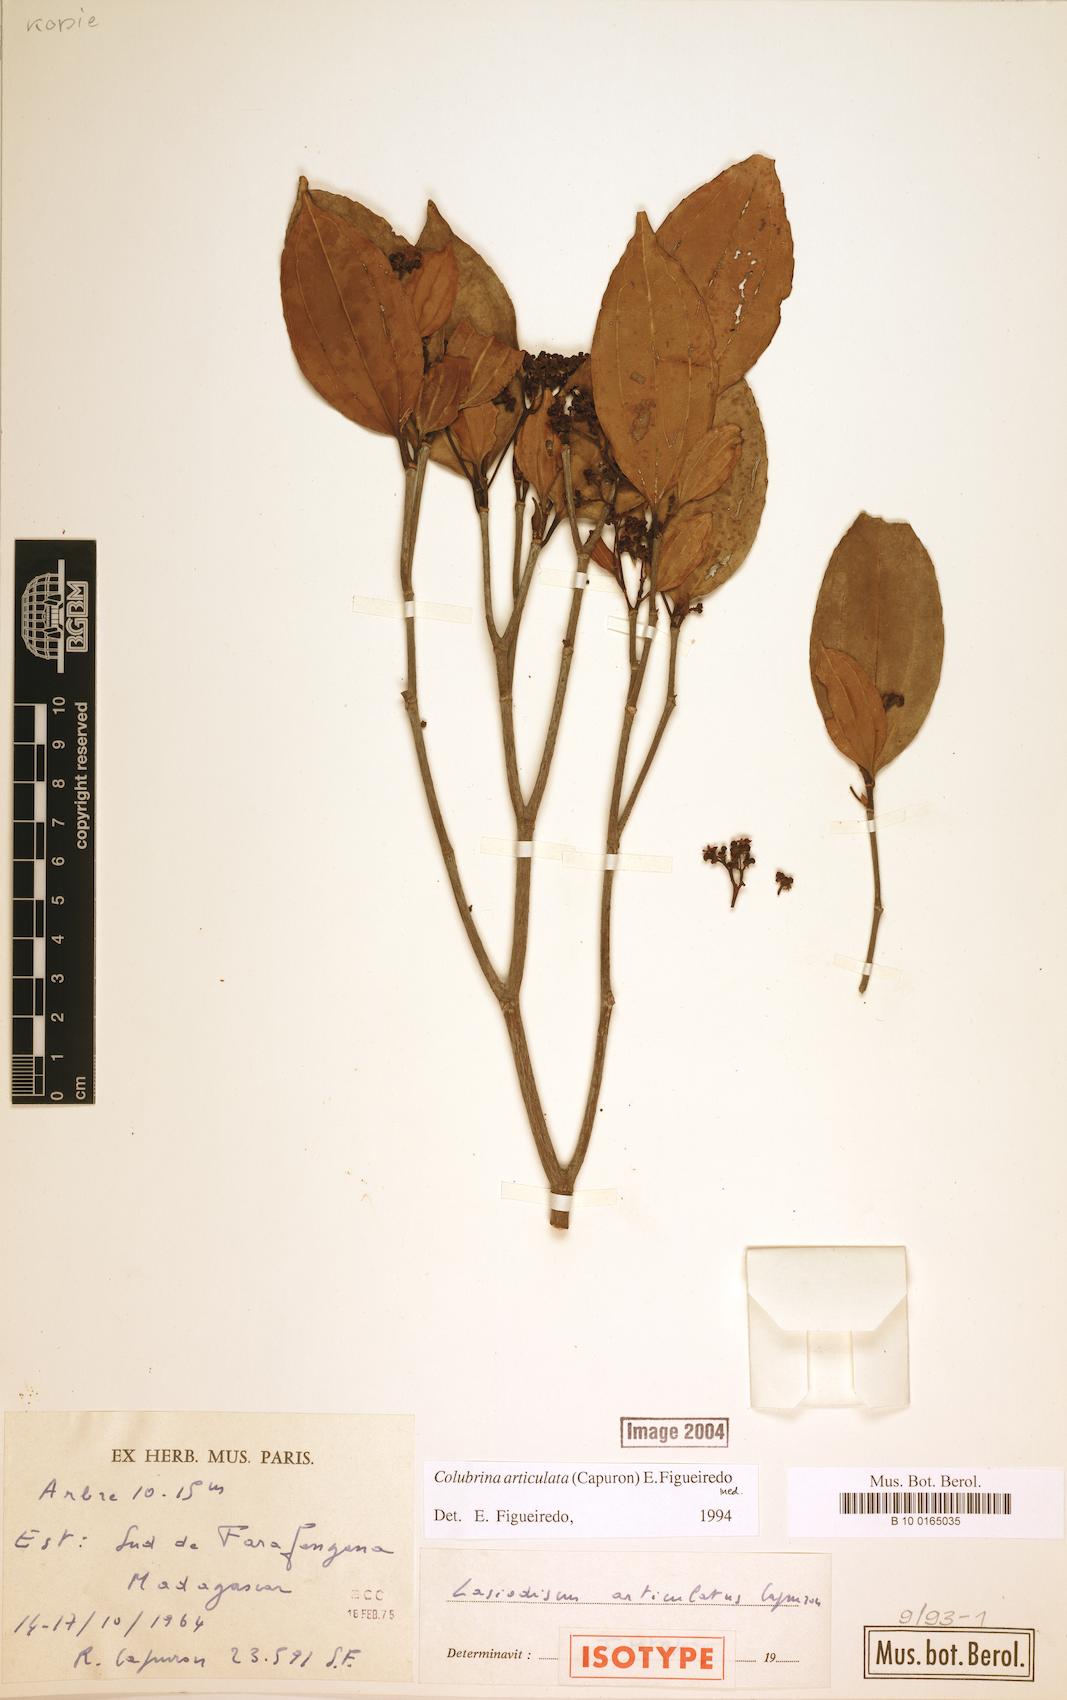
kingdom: Plantae
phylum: Tracheophyta
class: Magnoliopsida
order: Rosales
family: Rhamnaceae
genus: Colubrina
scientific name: Colubrina articulata
